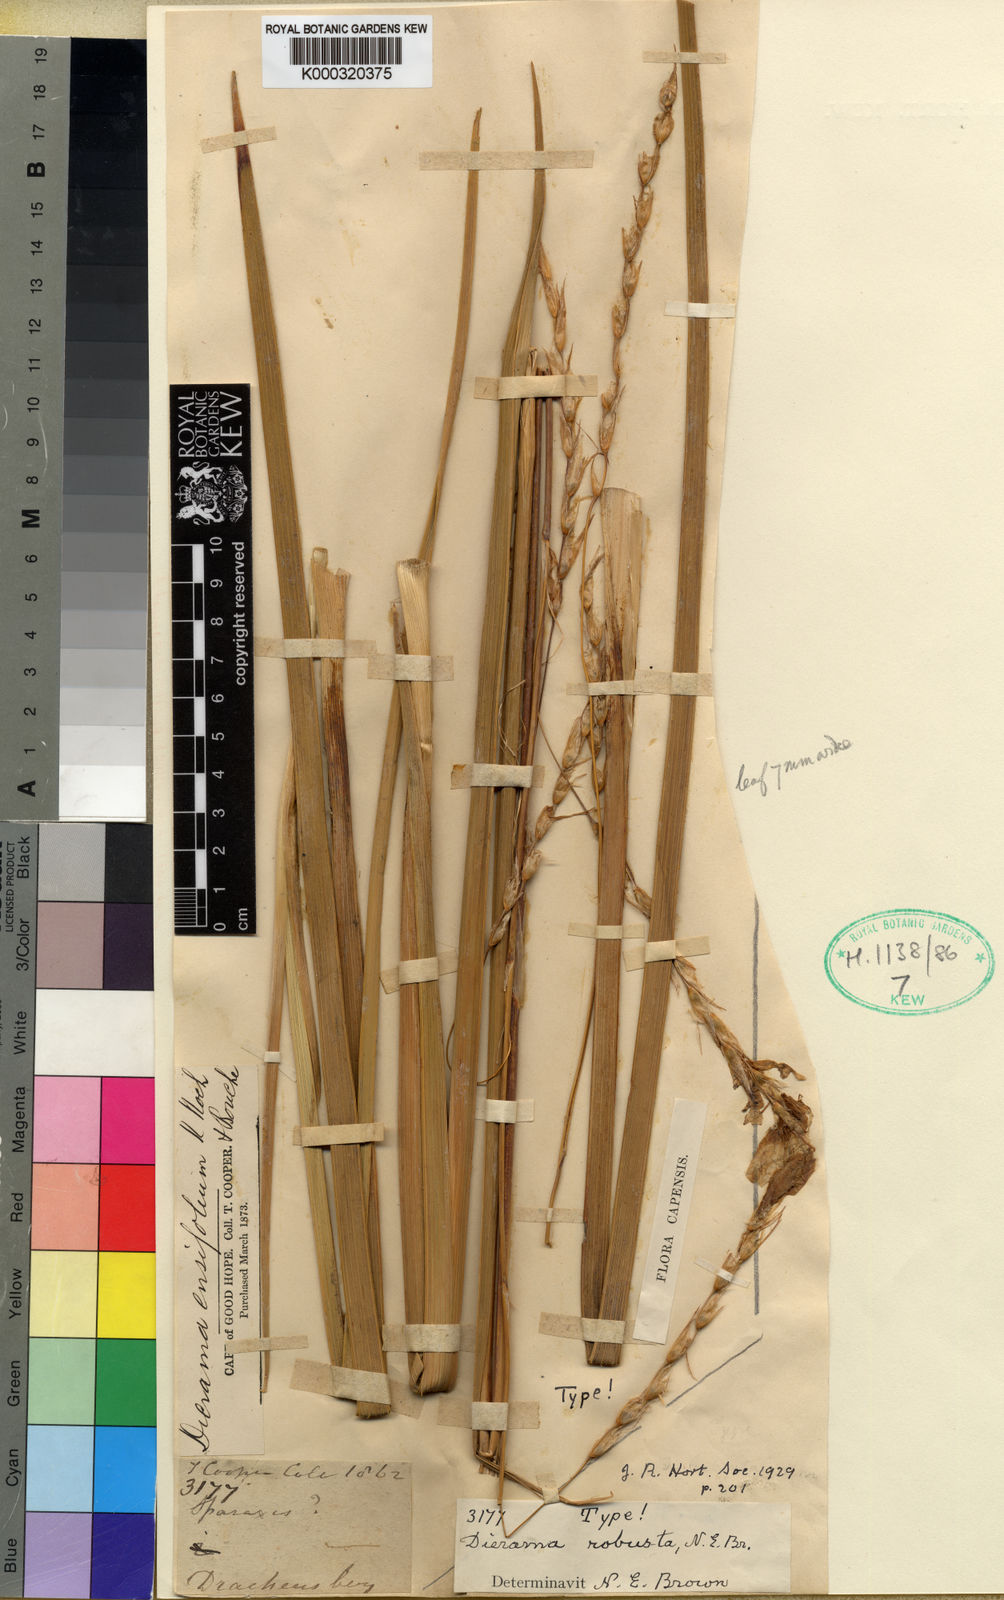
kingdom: Plantae
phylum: Tracheophyta
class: Liliopsida
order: Asparagales
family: Iridaceae
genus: Dierama
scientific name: Dierama robustum
